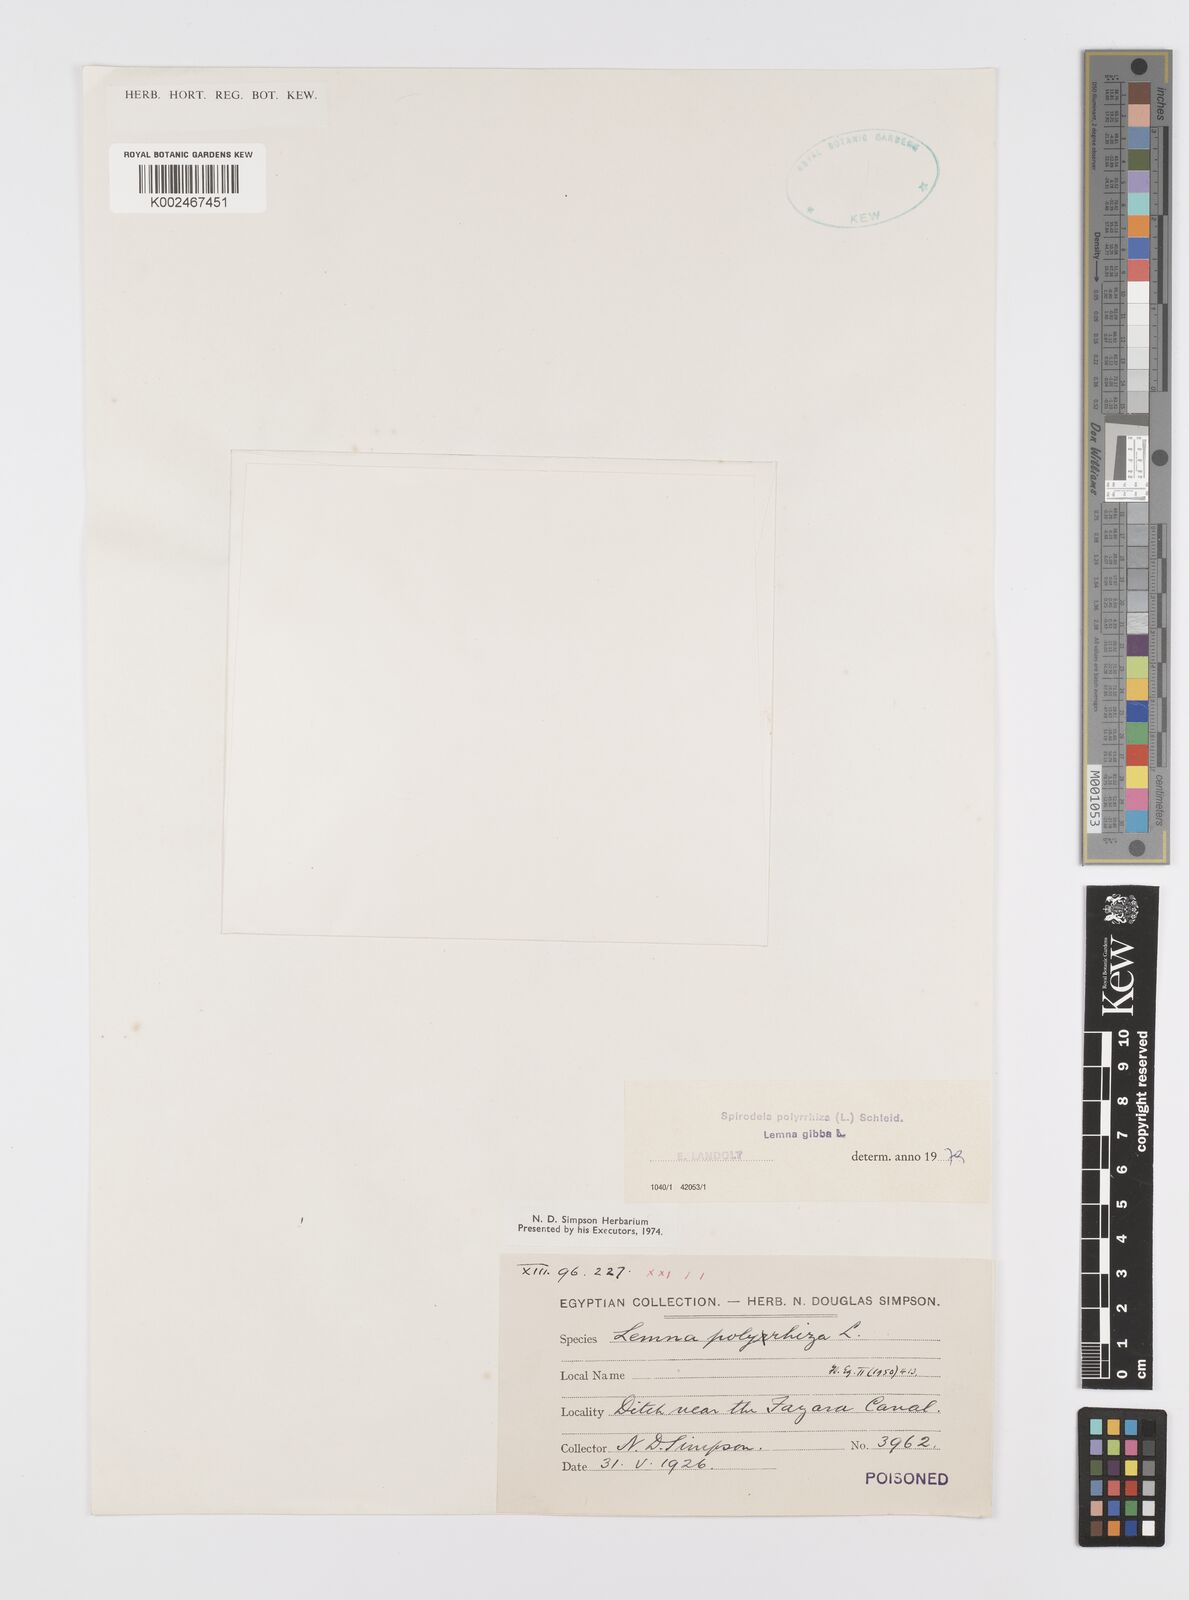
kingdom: Plantae
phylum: Tracheophyta
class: Liliopsida
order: Alismatales
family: Araceae
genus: Spirodela
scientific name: Spirodela polyrhiza
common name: Great duckweed
